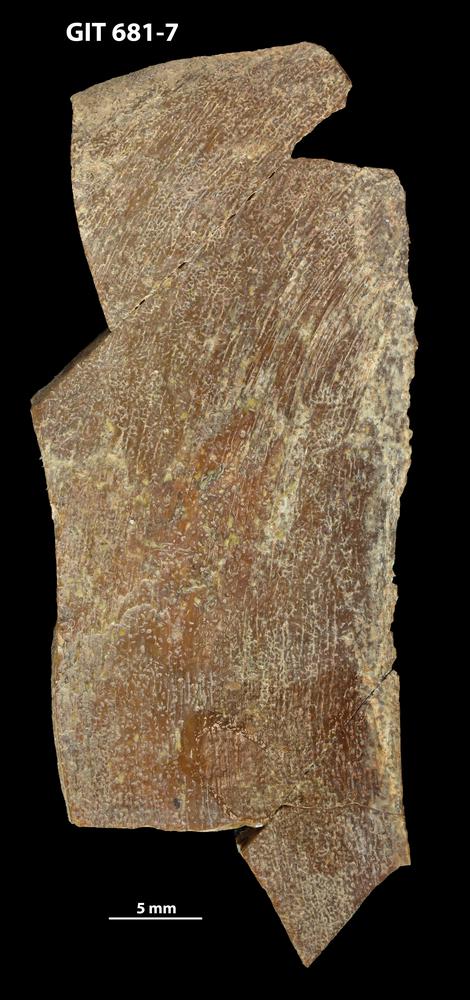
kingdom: Animalia
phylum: Chordata
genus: Hybosteus
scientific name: Hybosteus
